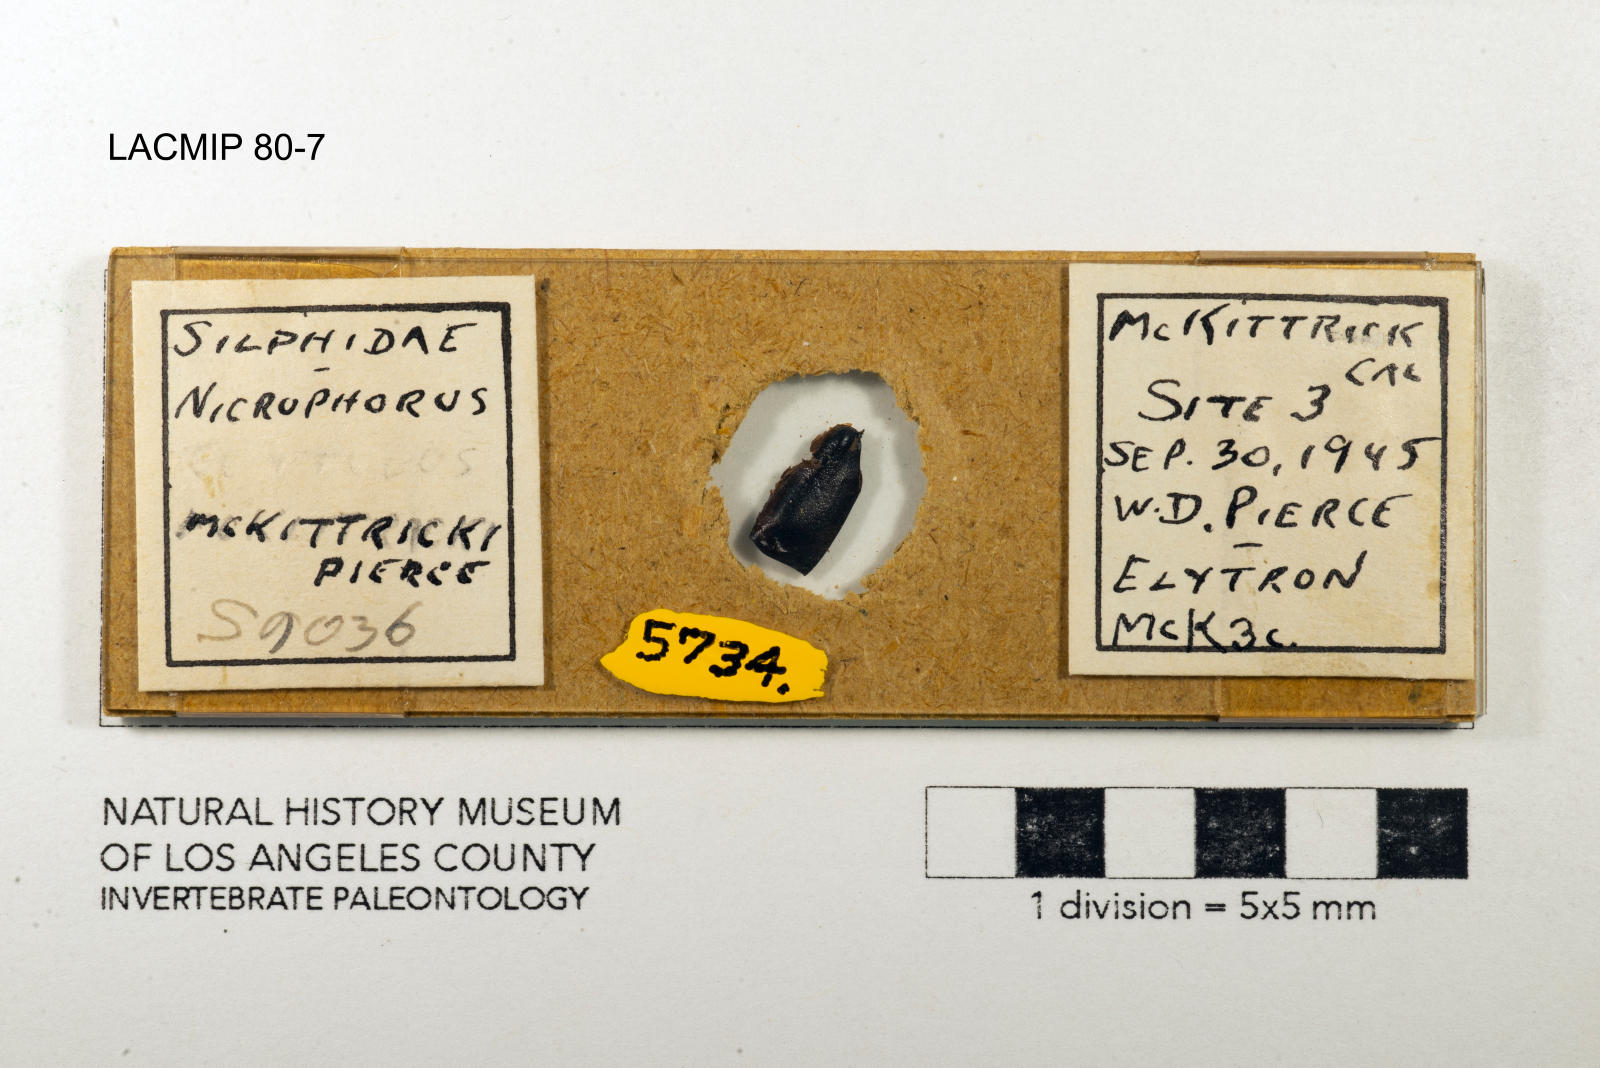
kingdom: Animalia
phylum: Arthropoda
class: Insecta
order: Coleoptera
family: Staphylinidae
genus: Nicrophorus
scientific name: Nicrophorus marginatus
